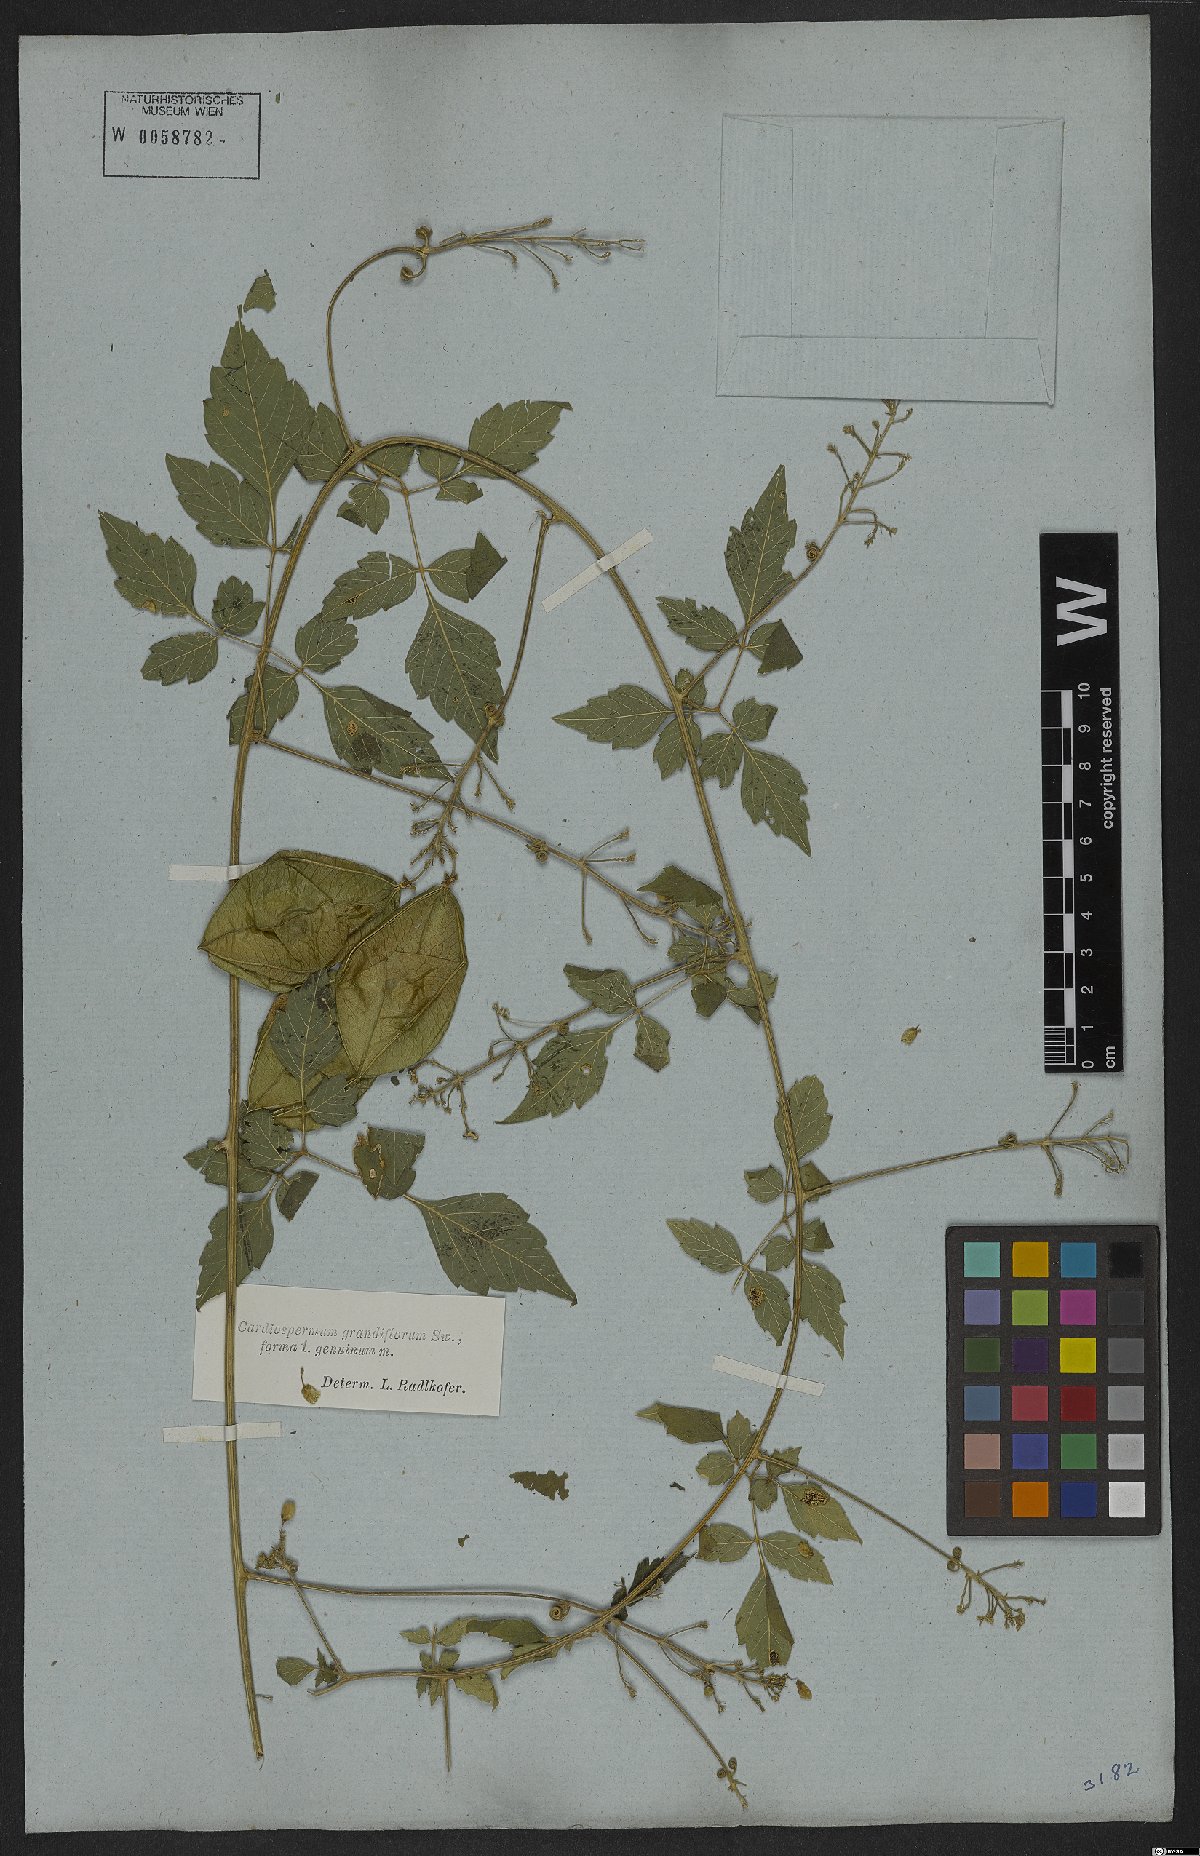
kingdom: Plantae
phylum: Tracheophyta
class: Magnoliopsida
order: Sapindales
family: Sapindaceae
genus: Cardiospermum
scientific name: Cardiospermum grandiflorum
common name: Balloon vine
